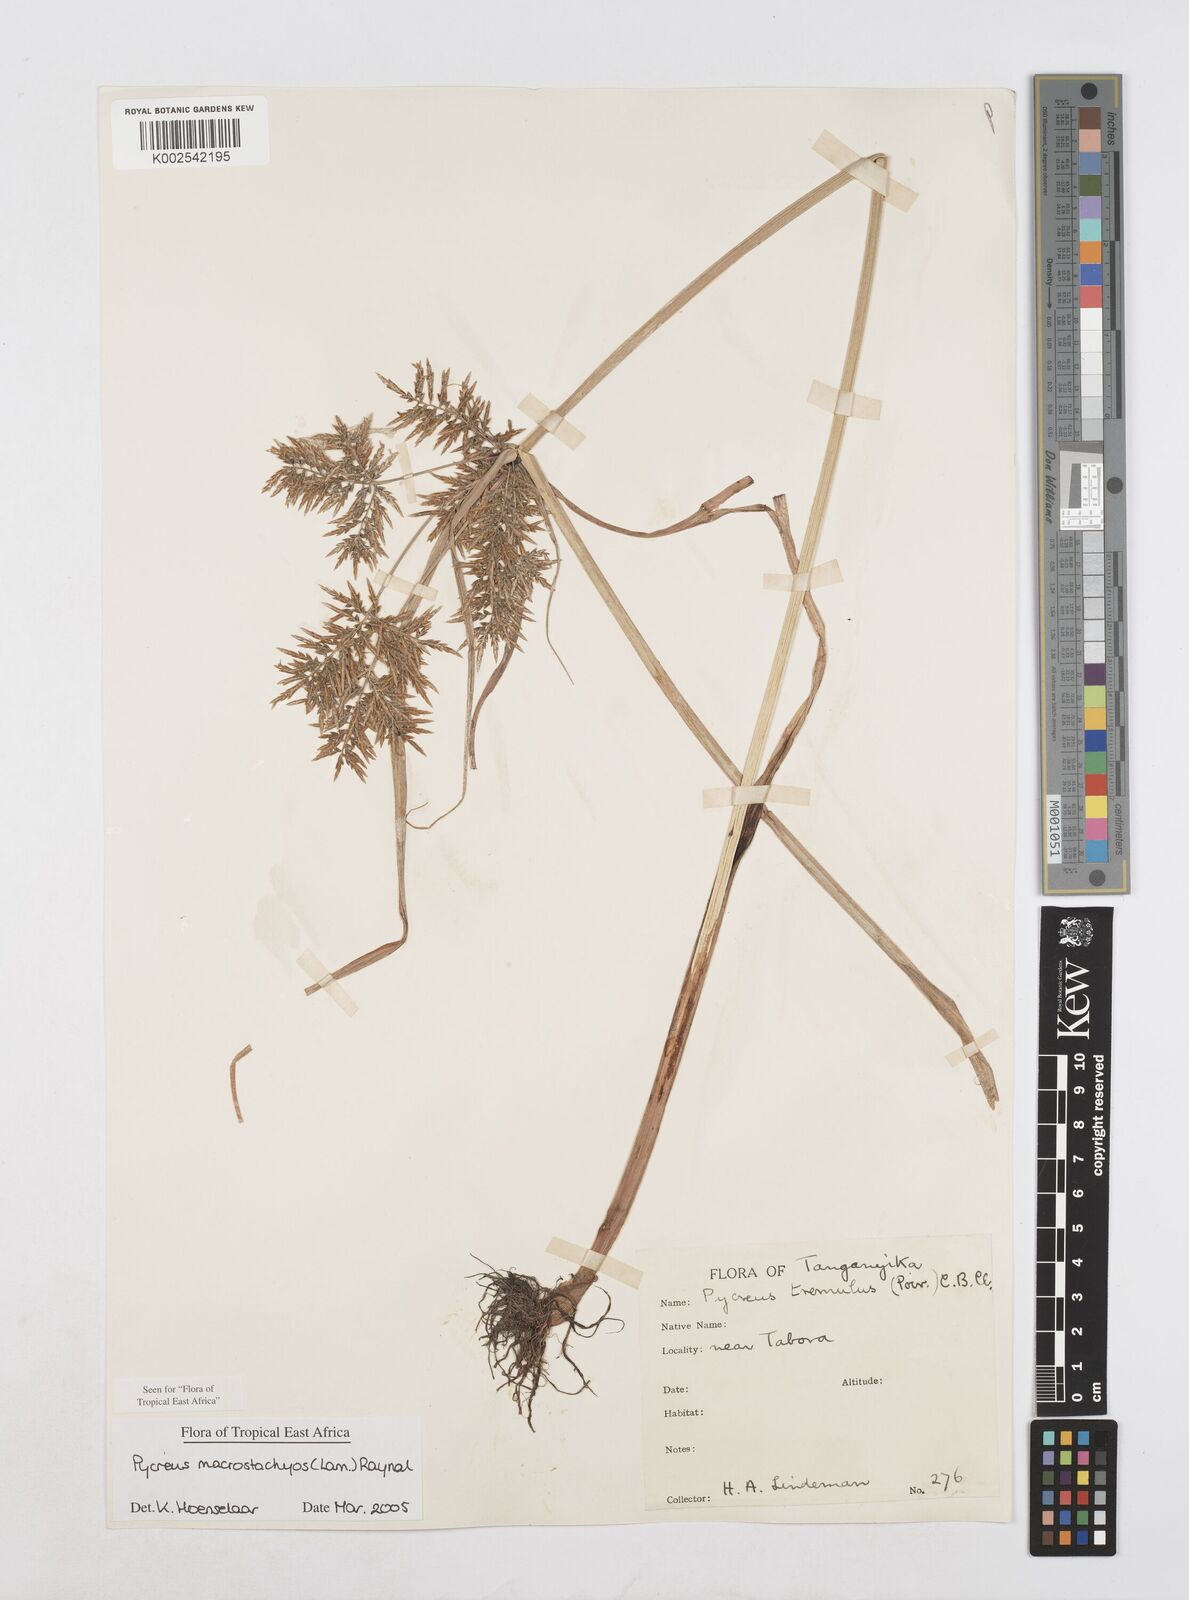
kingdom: Plantae
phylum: Tracheophyta
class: Liliopsida
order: Poales
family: Cyperaceae
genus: Cyperus
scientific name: Cyperus macrostachyos
